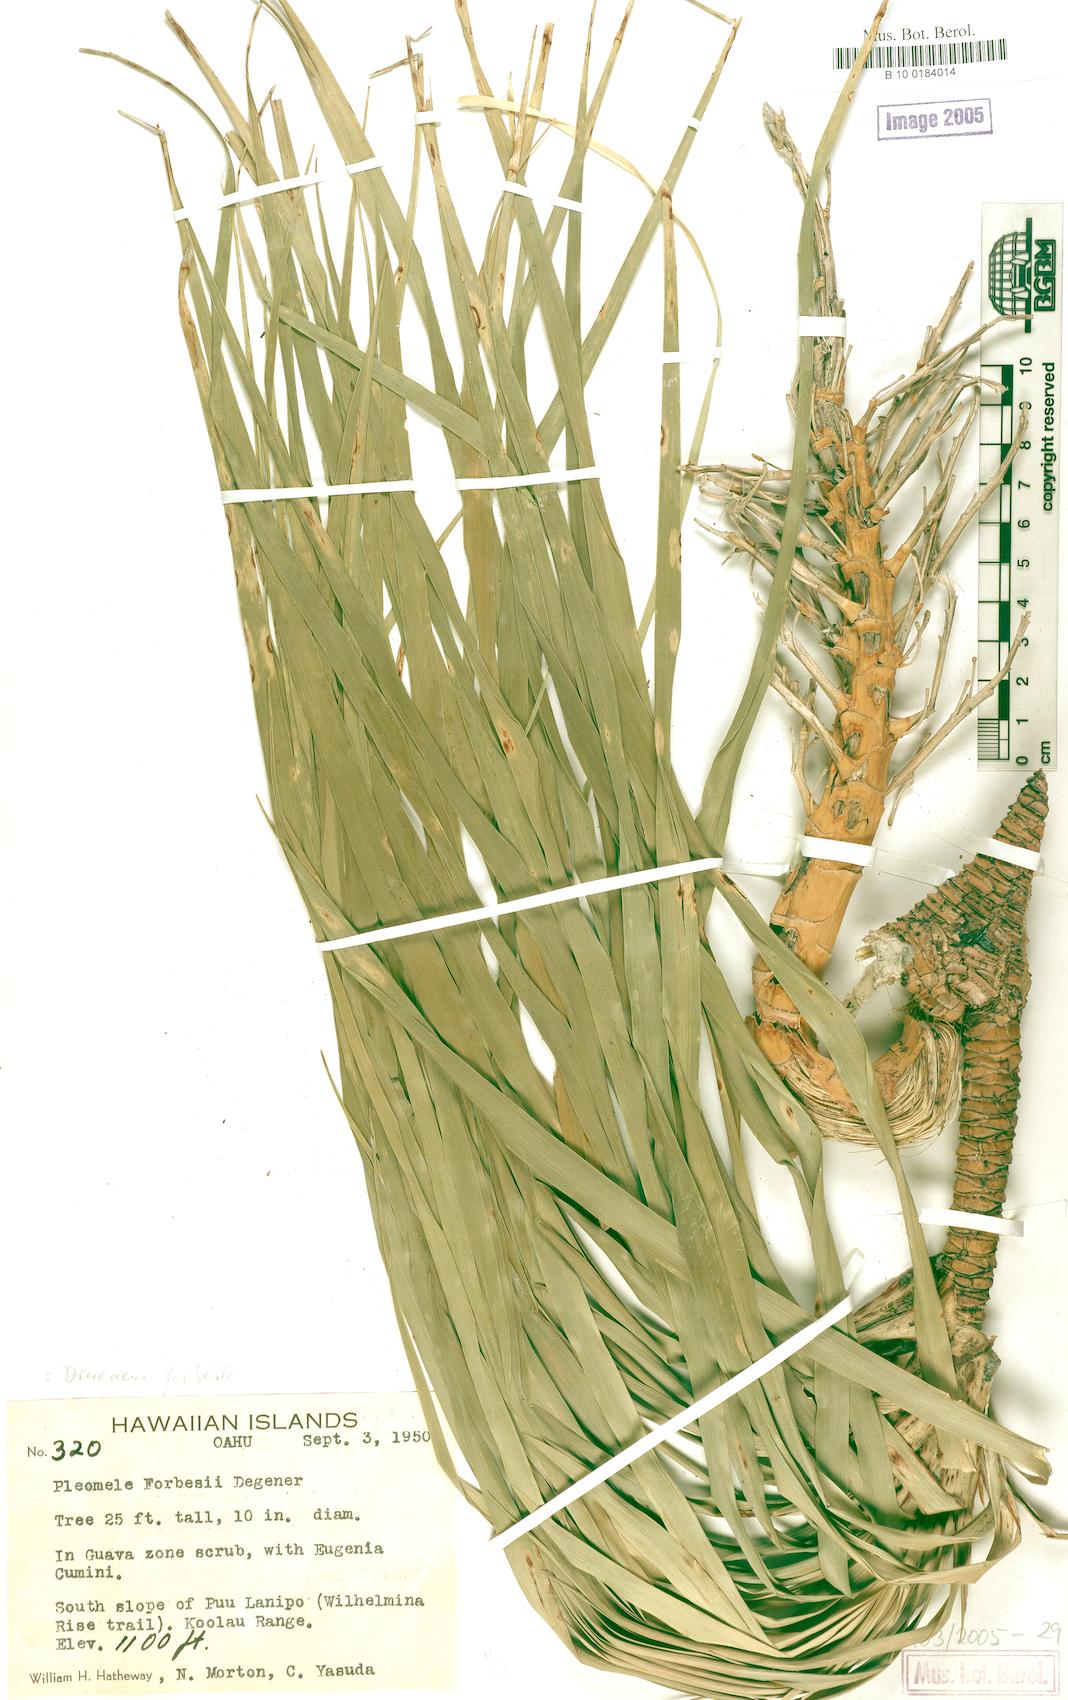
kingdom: Plantae
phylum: Tracheophyta
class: Liliopsida
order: Asparagales
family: Asparagaceae
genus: Dracaena
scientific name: Dracaena forbesii
